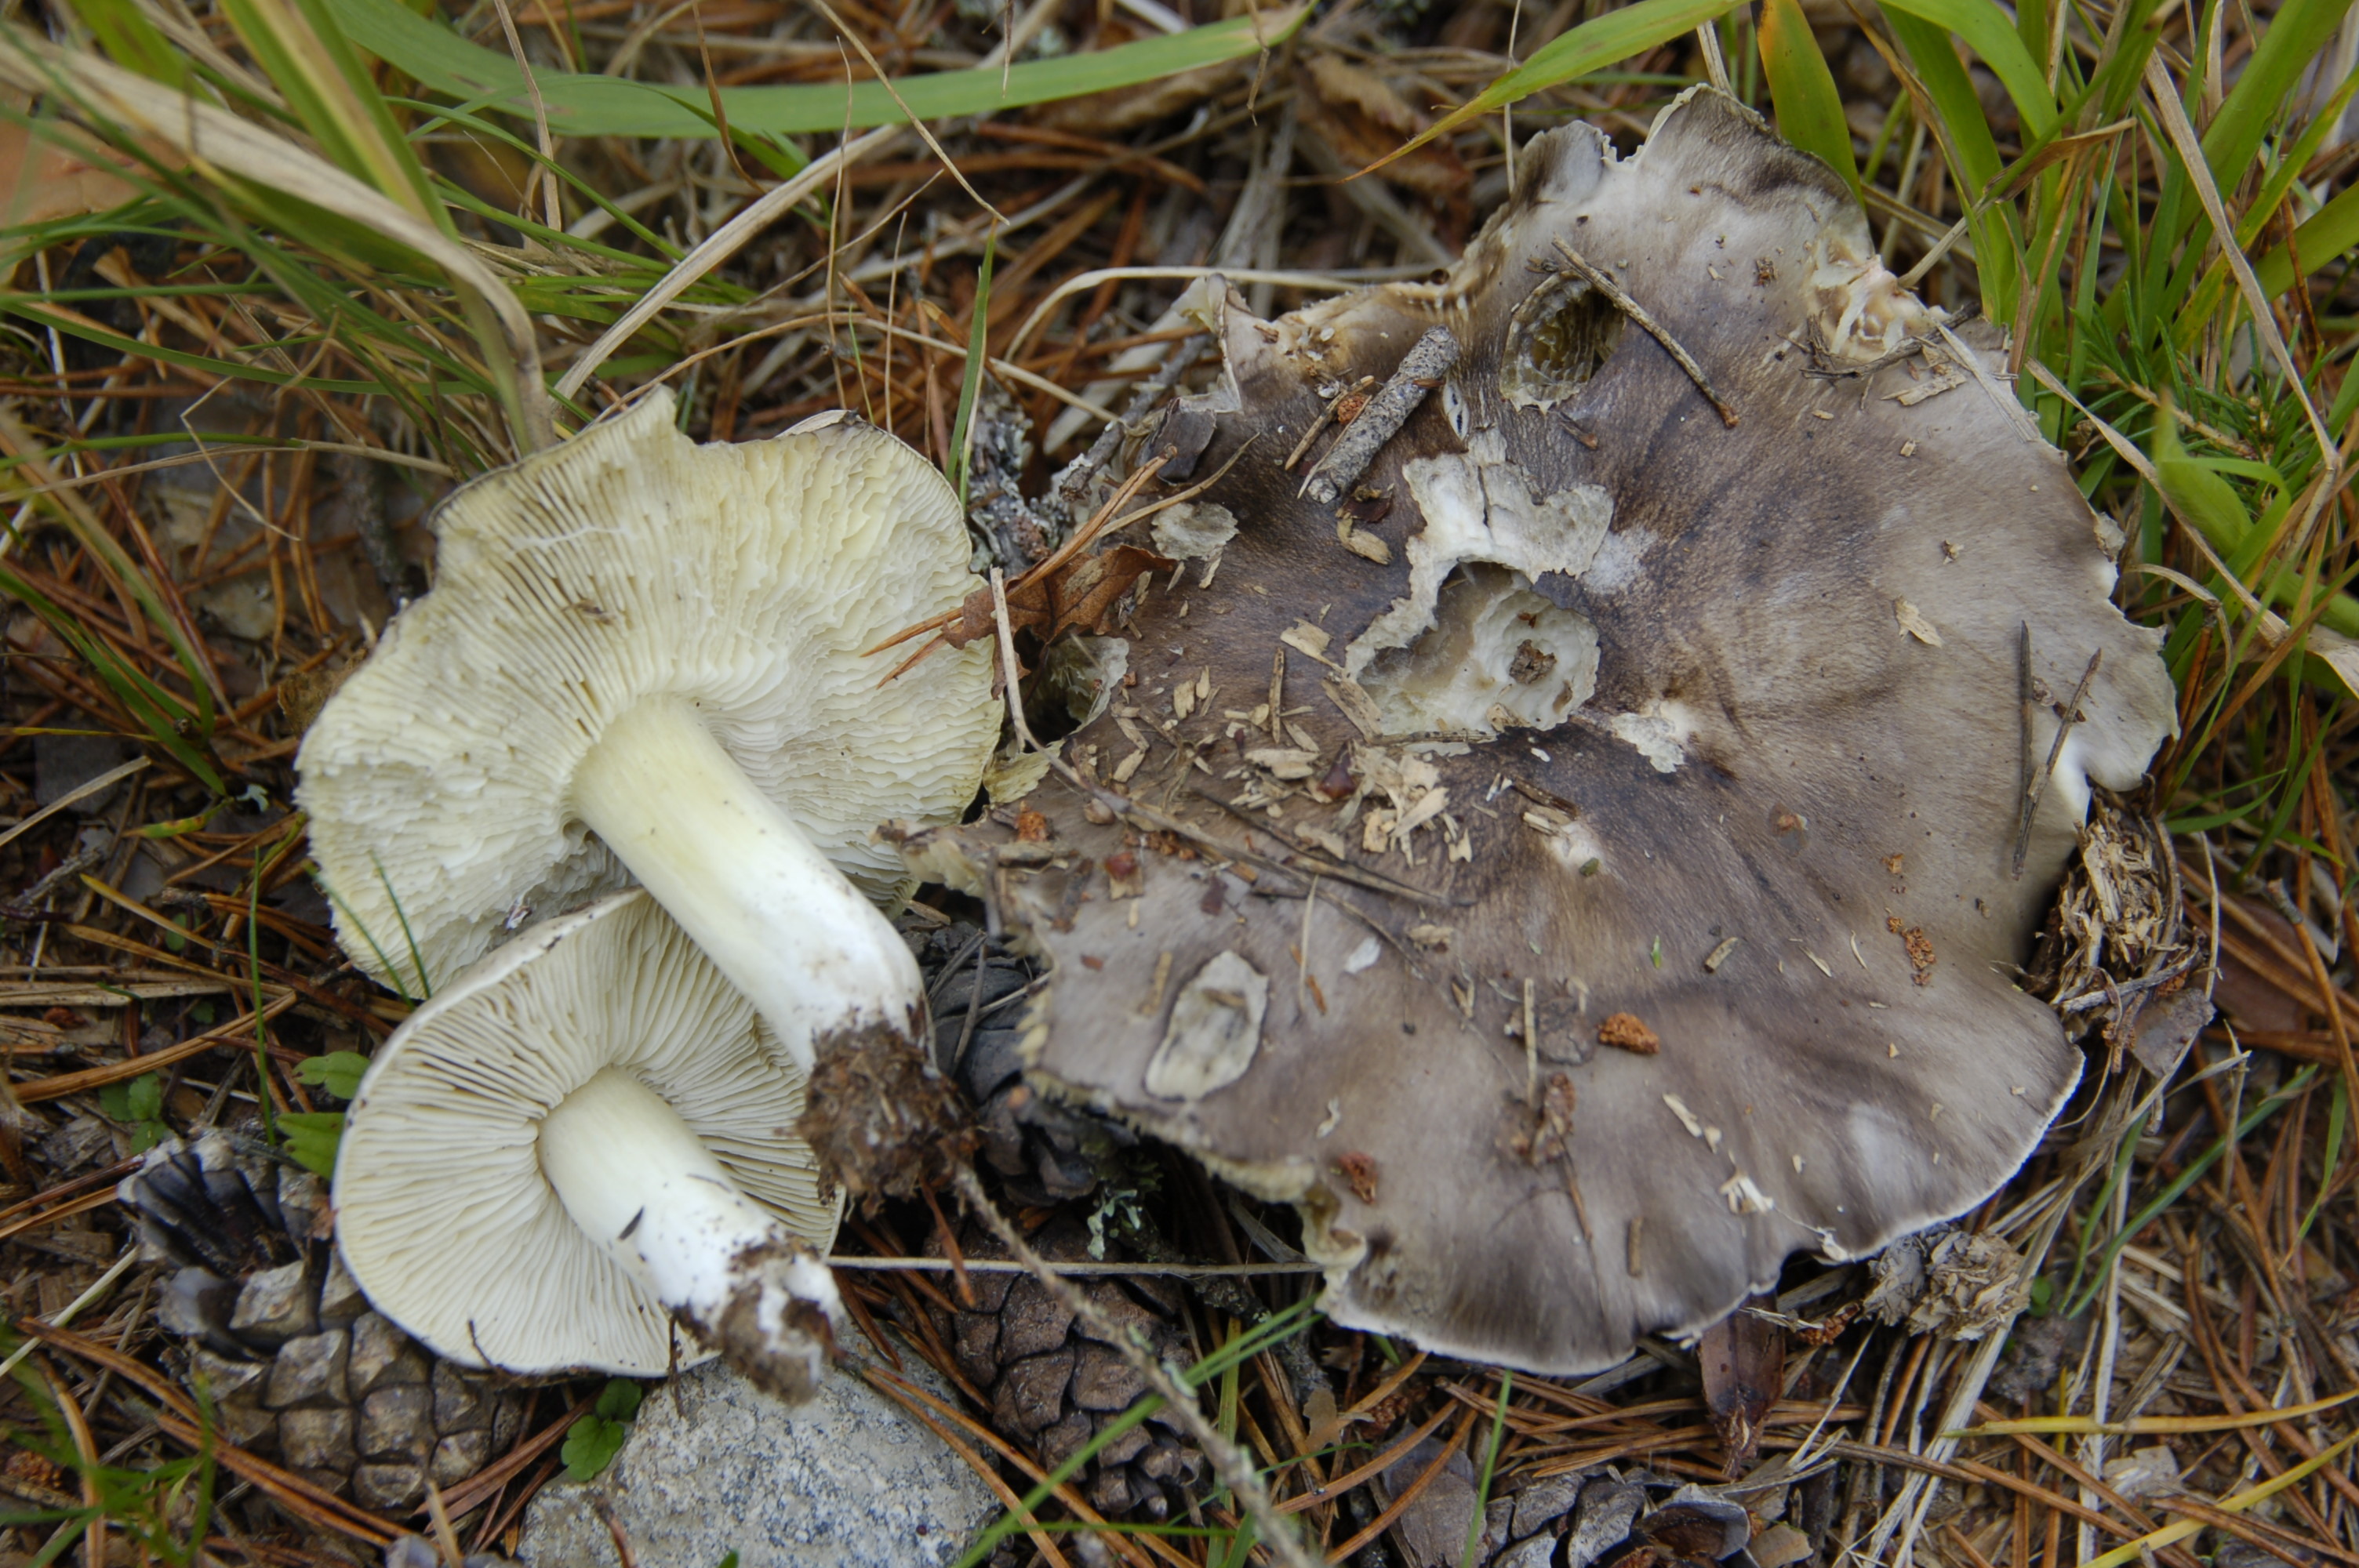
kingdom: Fungi
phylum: Basidiomycota
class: Agaricomycetes
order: Agaricales
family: Tricholomataceae
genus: Tricholoma
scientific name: Tricholoma portentosum
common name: Coalman
